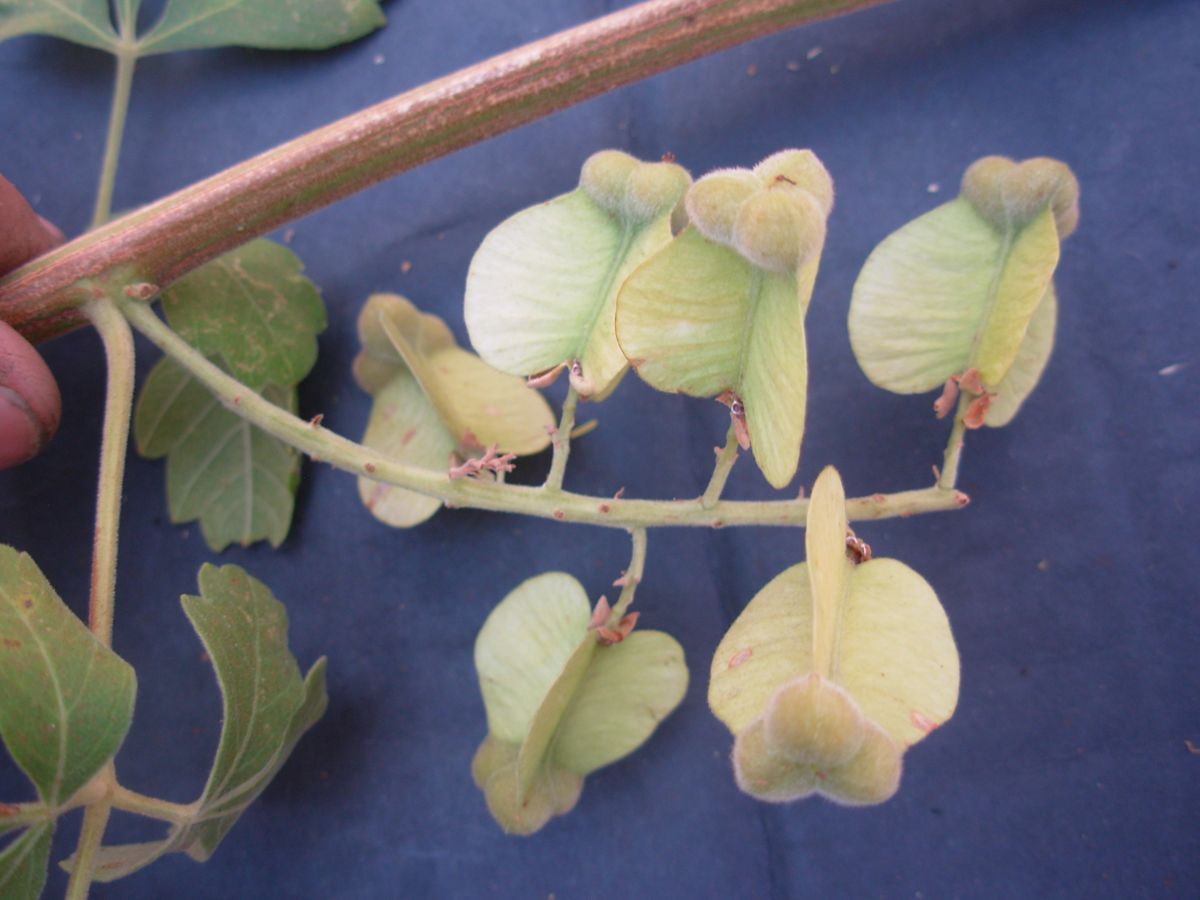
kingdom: Plantae
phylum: Tracheophyta
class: Magnoliopsida
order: Sapindales
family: Sapindaceae
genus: Serjania
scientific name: Serjania triquetra
